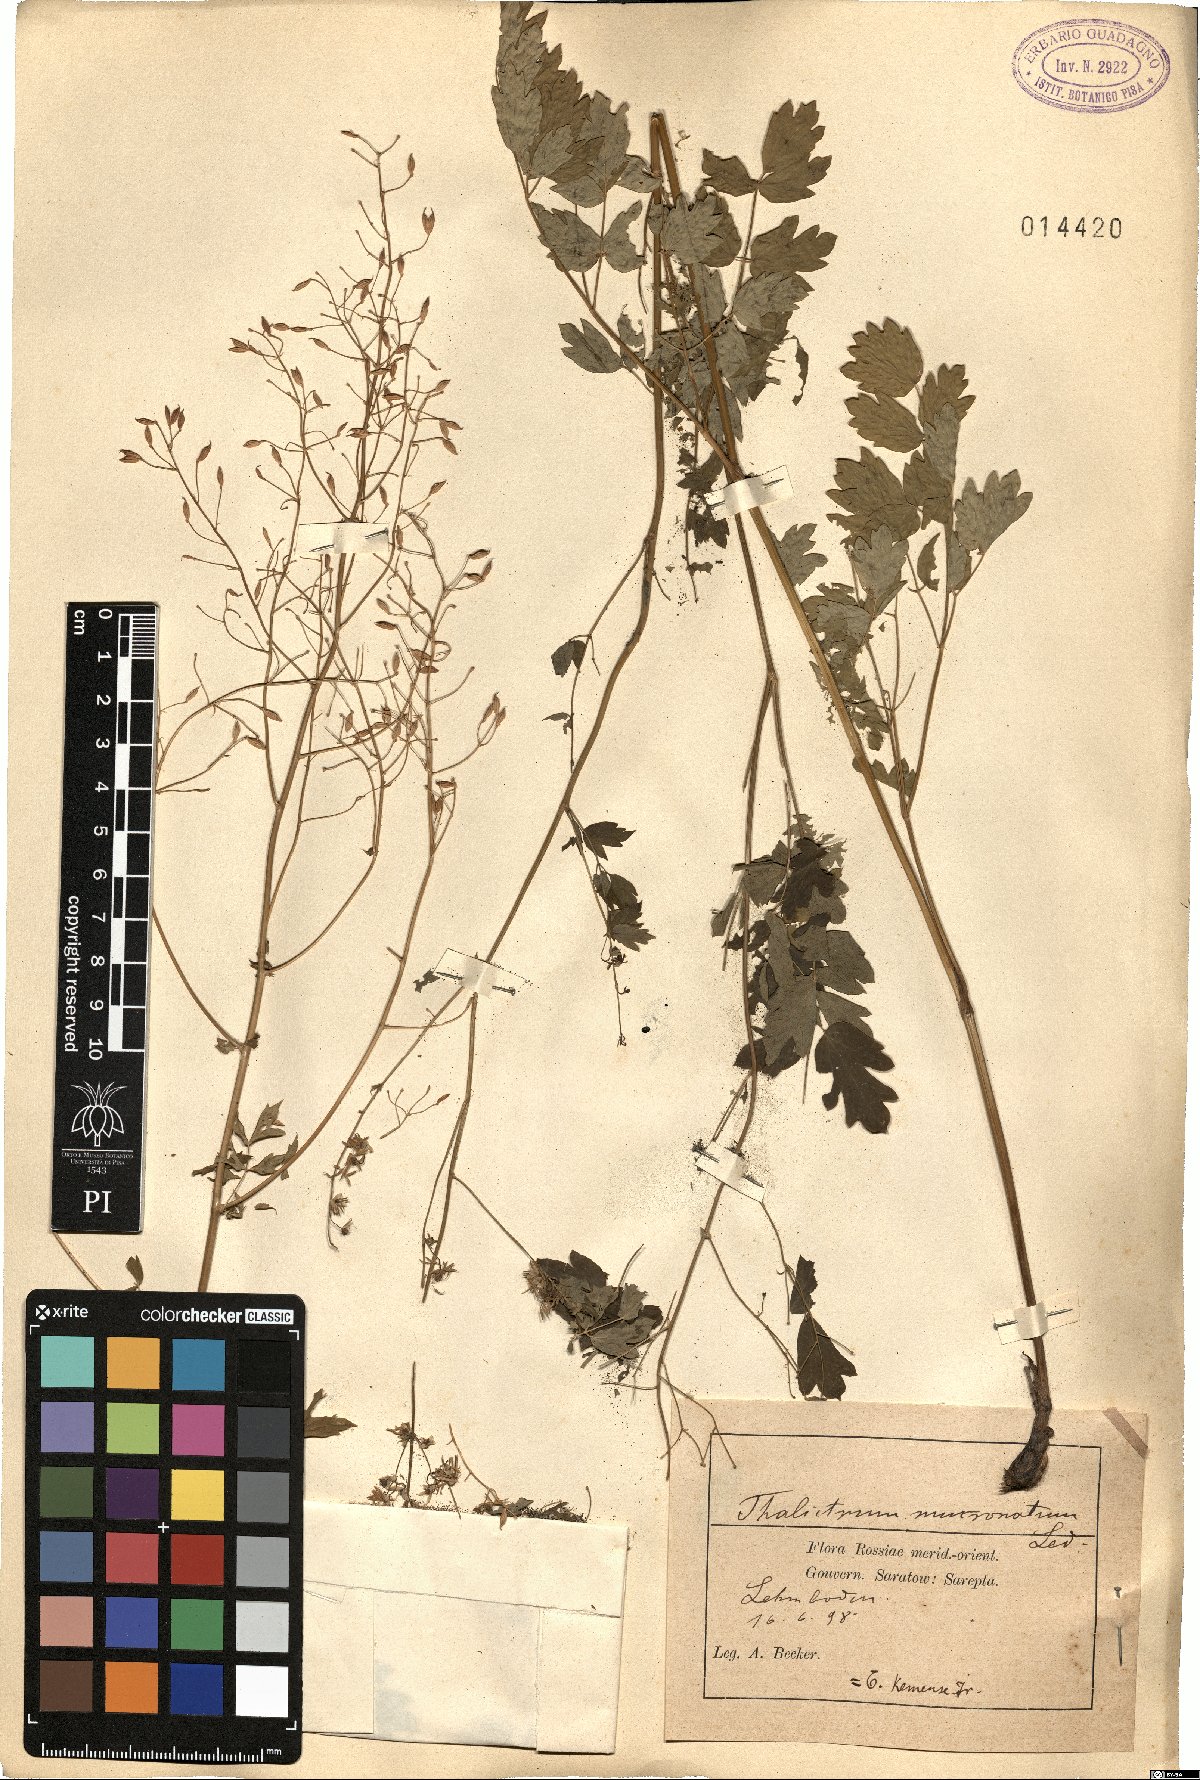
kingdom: Plantae
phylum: Tracheophyta
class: Magnoliopsida
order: Ranunculales
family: Ranunculaceae
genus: Thalictrum
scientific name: Thalictrum minus
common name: Lesser meadow-rue
